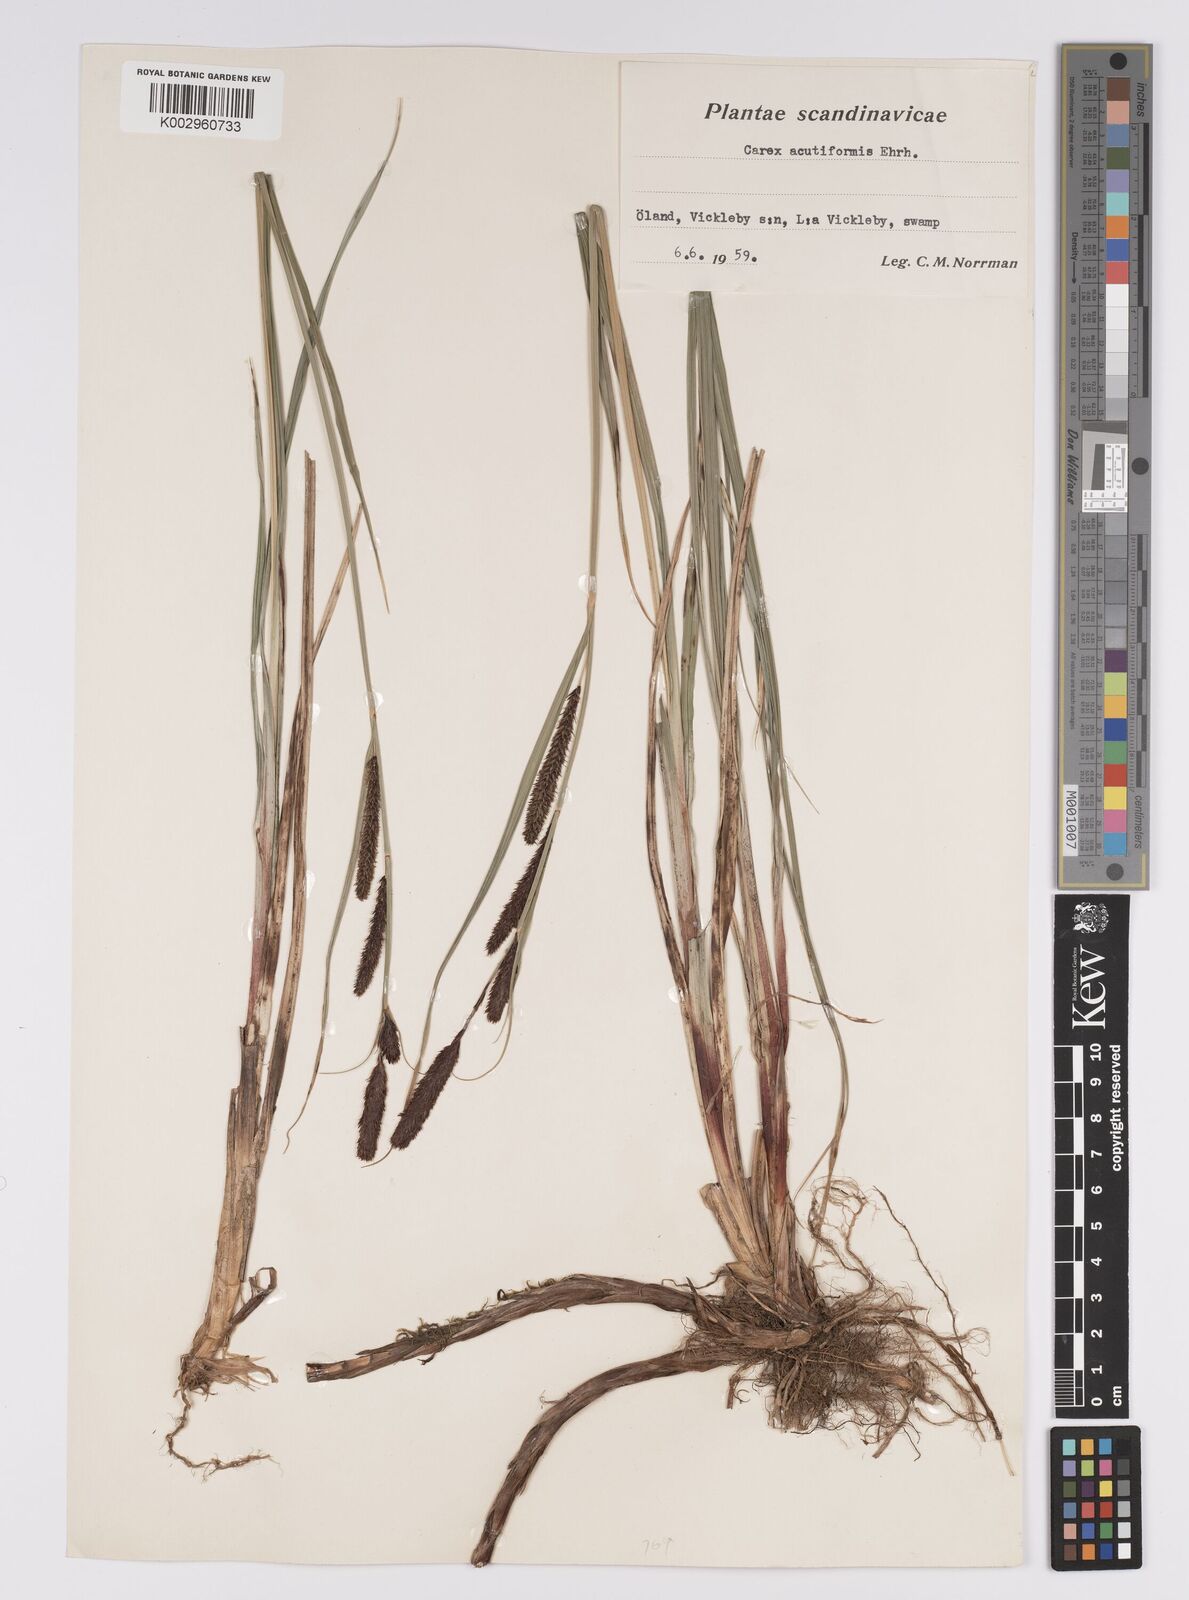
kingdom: Plantae
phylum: Tracheophyta
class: Liliopsida
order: Poales
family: Cyperaceae
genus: Carex
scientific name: Carex acutiformis
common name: Lesser pond-sedge
